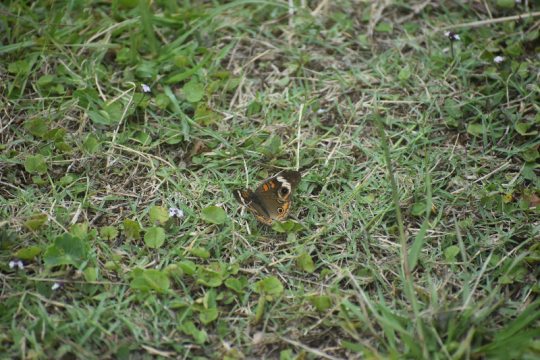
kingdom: Animalia
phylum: Arthropoda
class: Insecta
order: Lepidoptera
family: Nymphalidae
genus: Junonia
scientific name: Junonia coenia
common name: Common Buckeye
